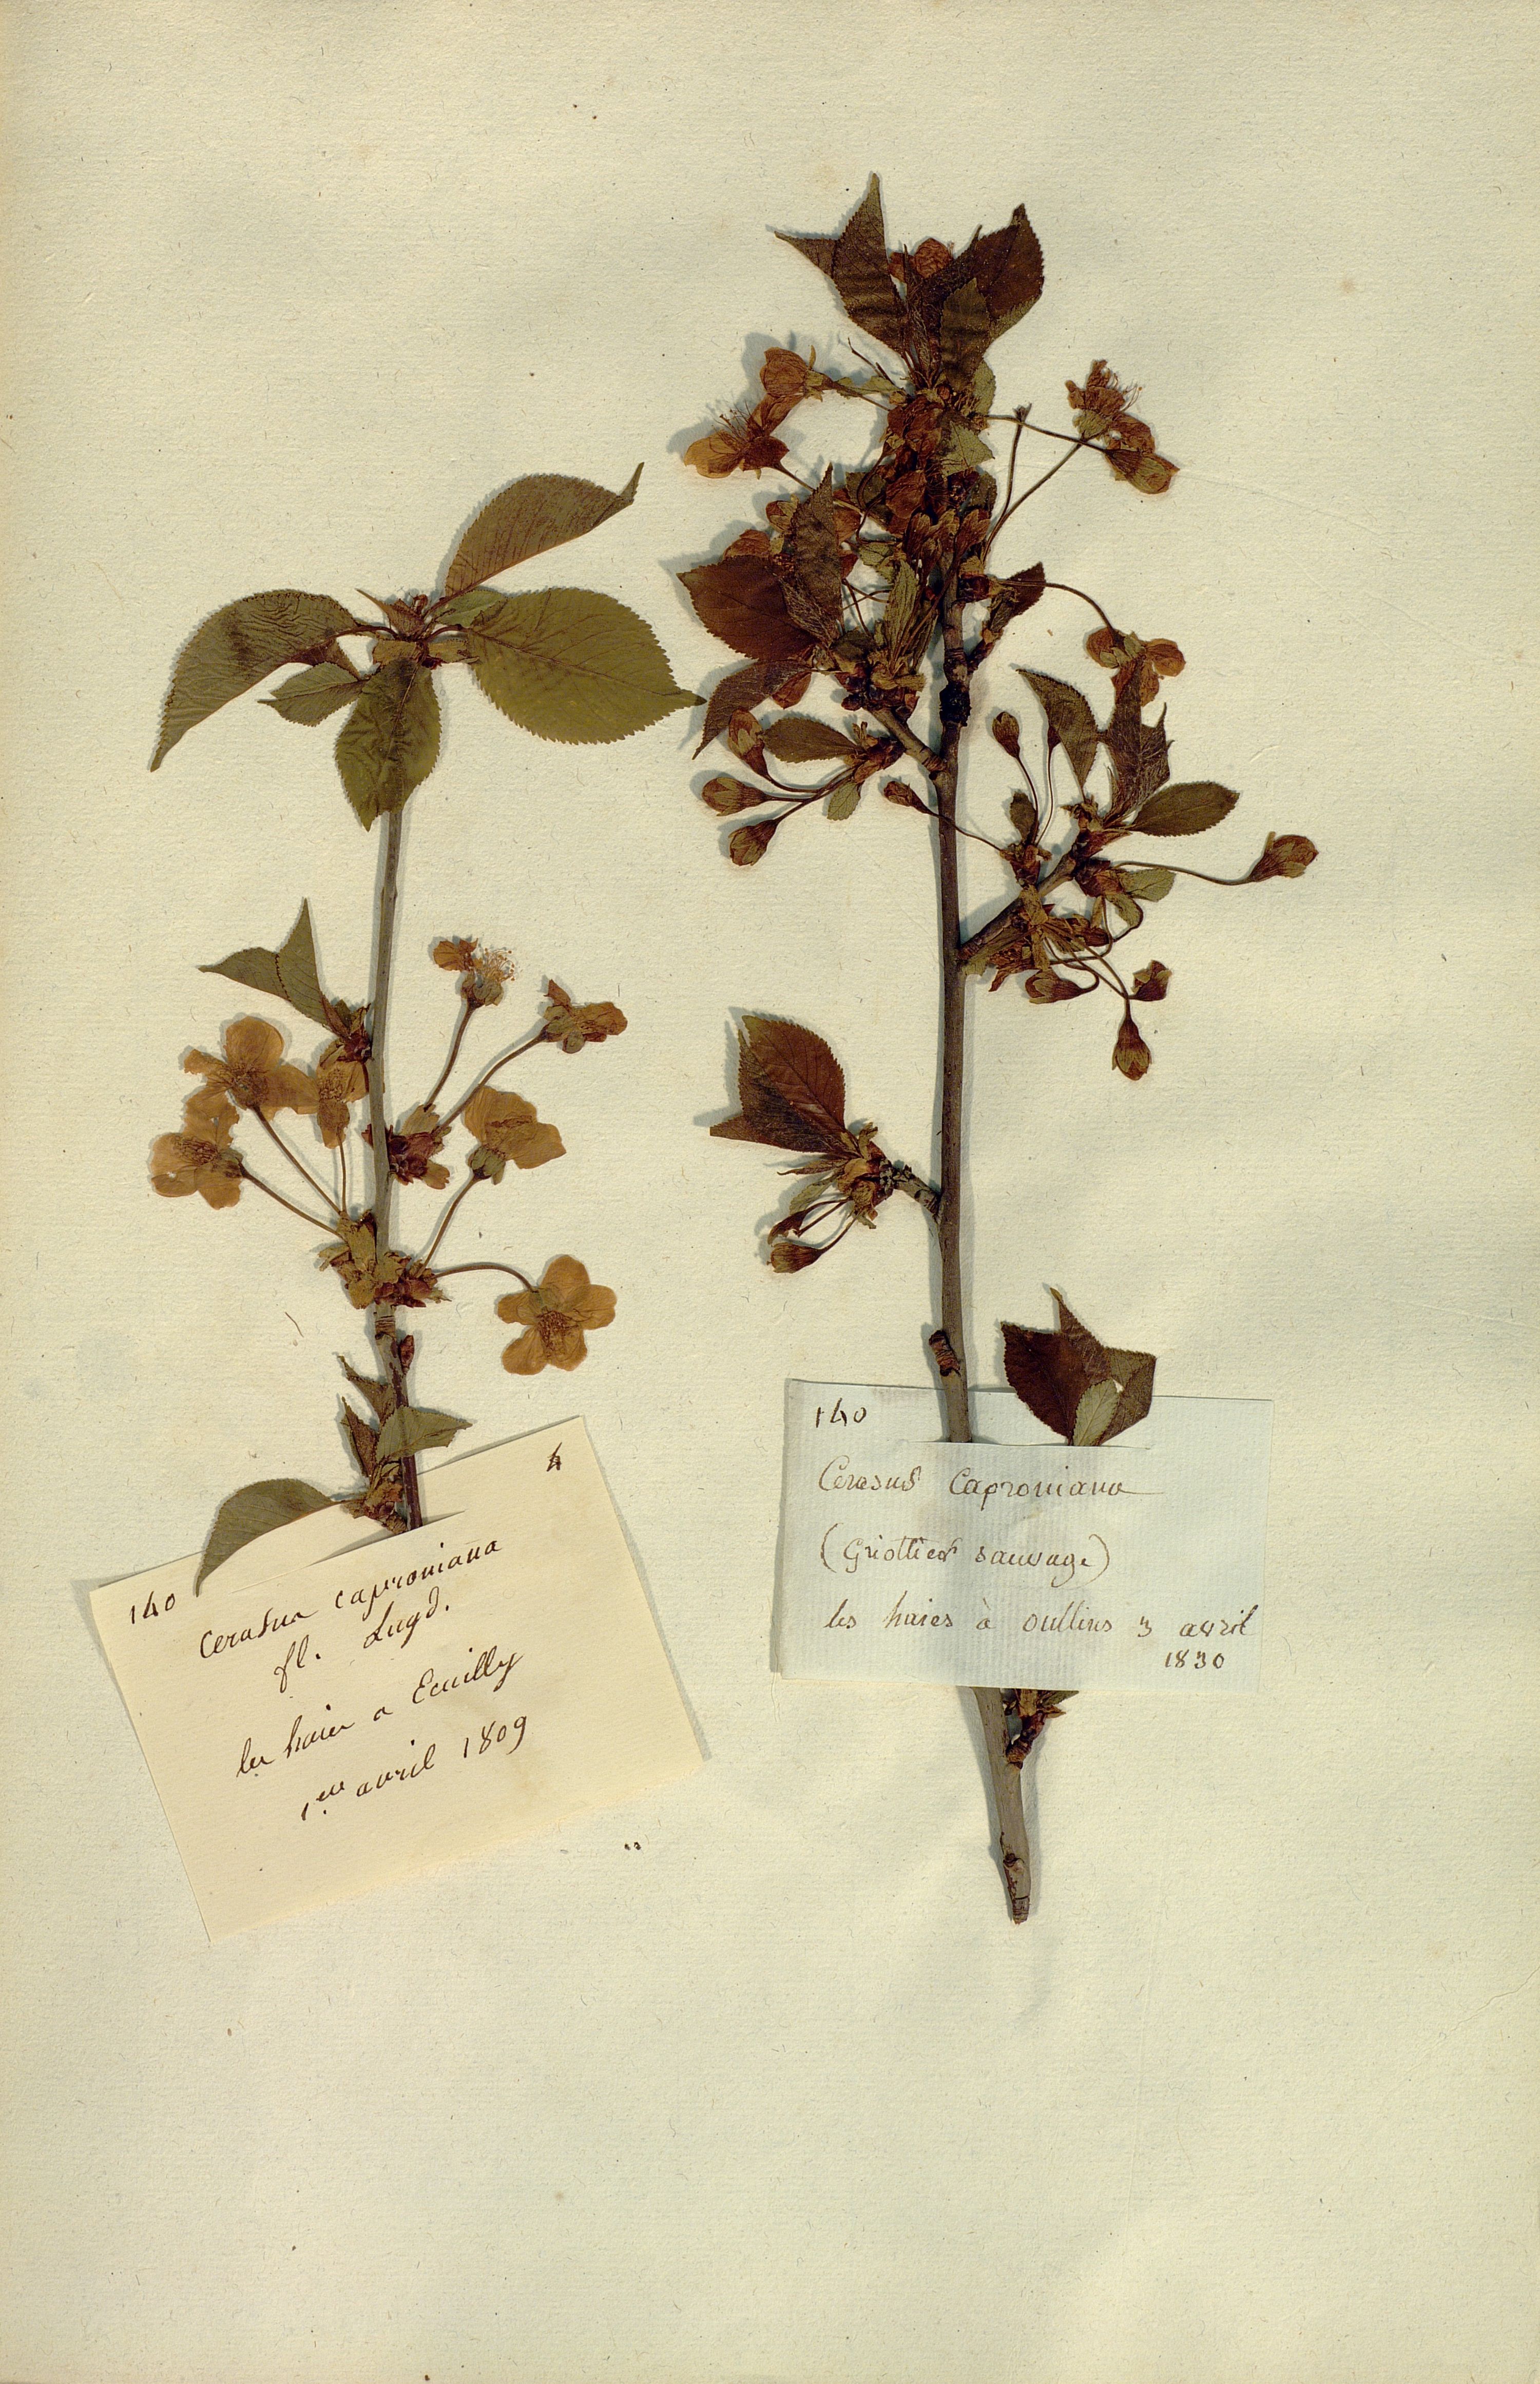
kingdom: Plantae
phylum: Tracheophyta
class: Magnoliopsida
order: Rosales
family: Rosaceae
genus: Prunus
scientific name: Prunus cerasus
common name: Morello cherry
